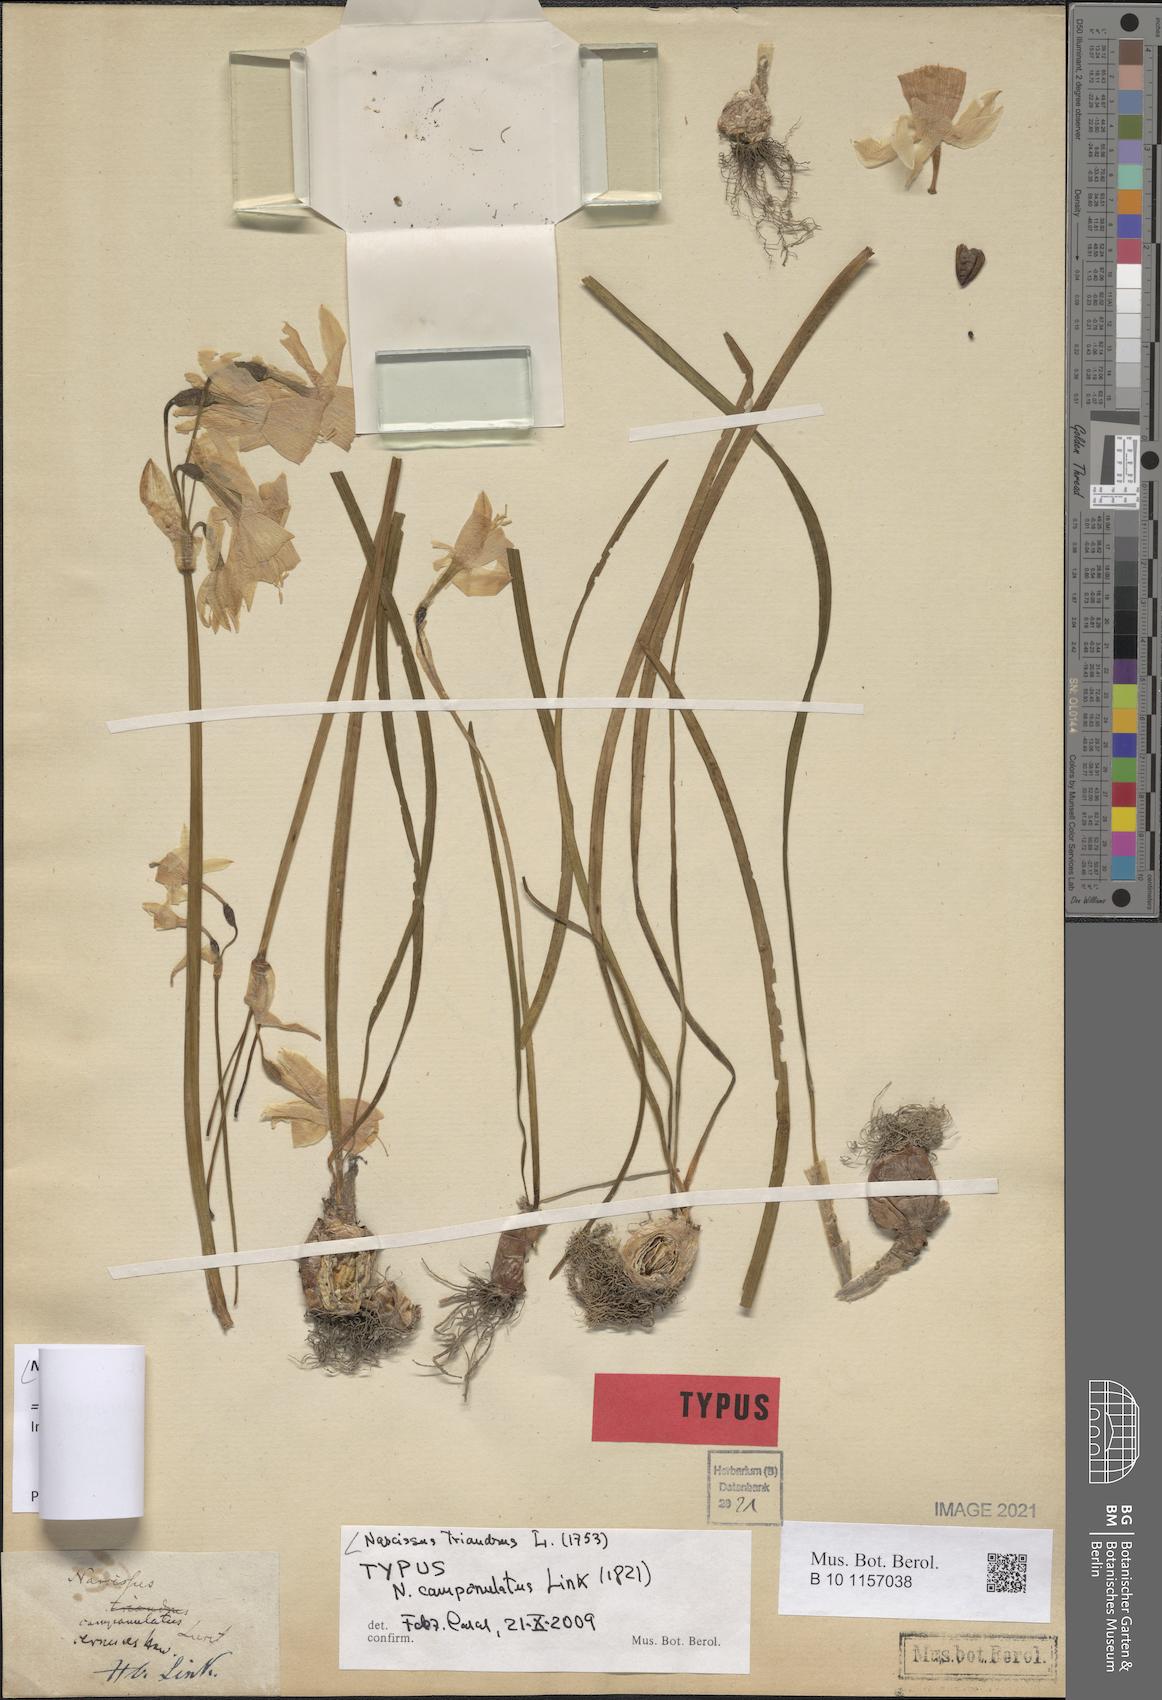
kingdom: Plantae
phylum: Tracheophyta
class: Liliopsida
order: Asparagales
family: Amaryllidaceae
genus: Narcissus
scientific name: Narcissus triandrus
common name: Angel's-tears
